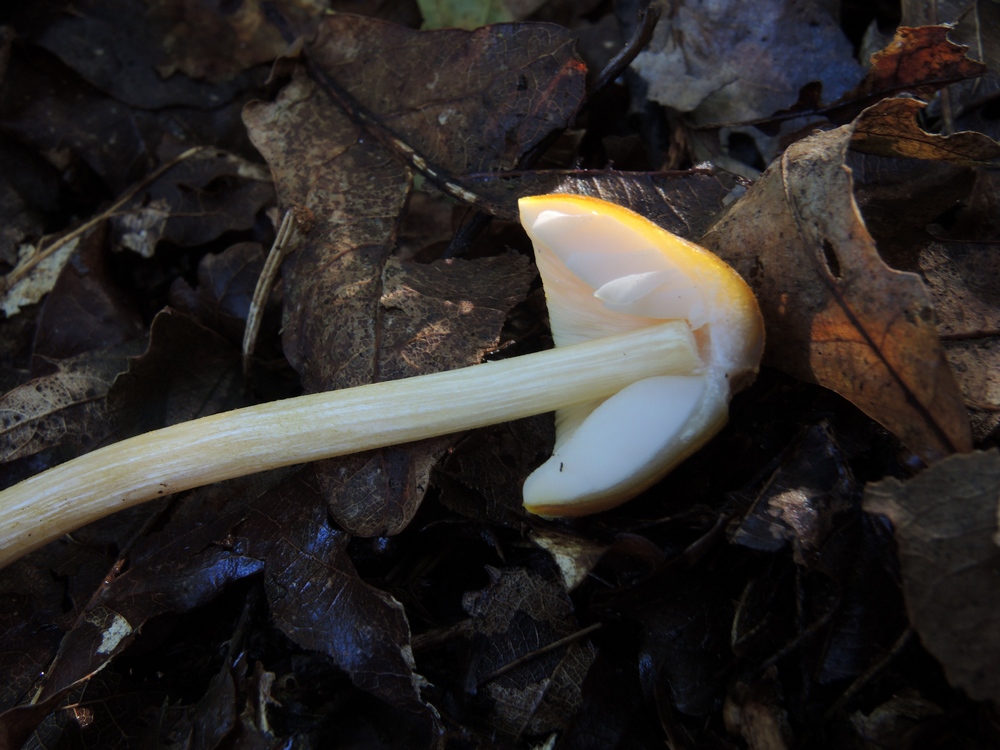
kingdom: Fungi
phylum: Basidiomycota
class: Agaricomycetes
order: Agaricales
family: Pluteaceae
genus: Pluteus
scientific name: Pluteus leoninus
